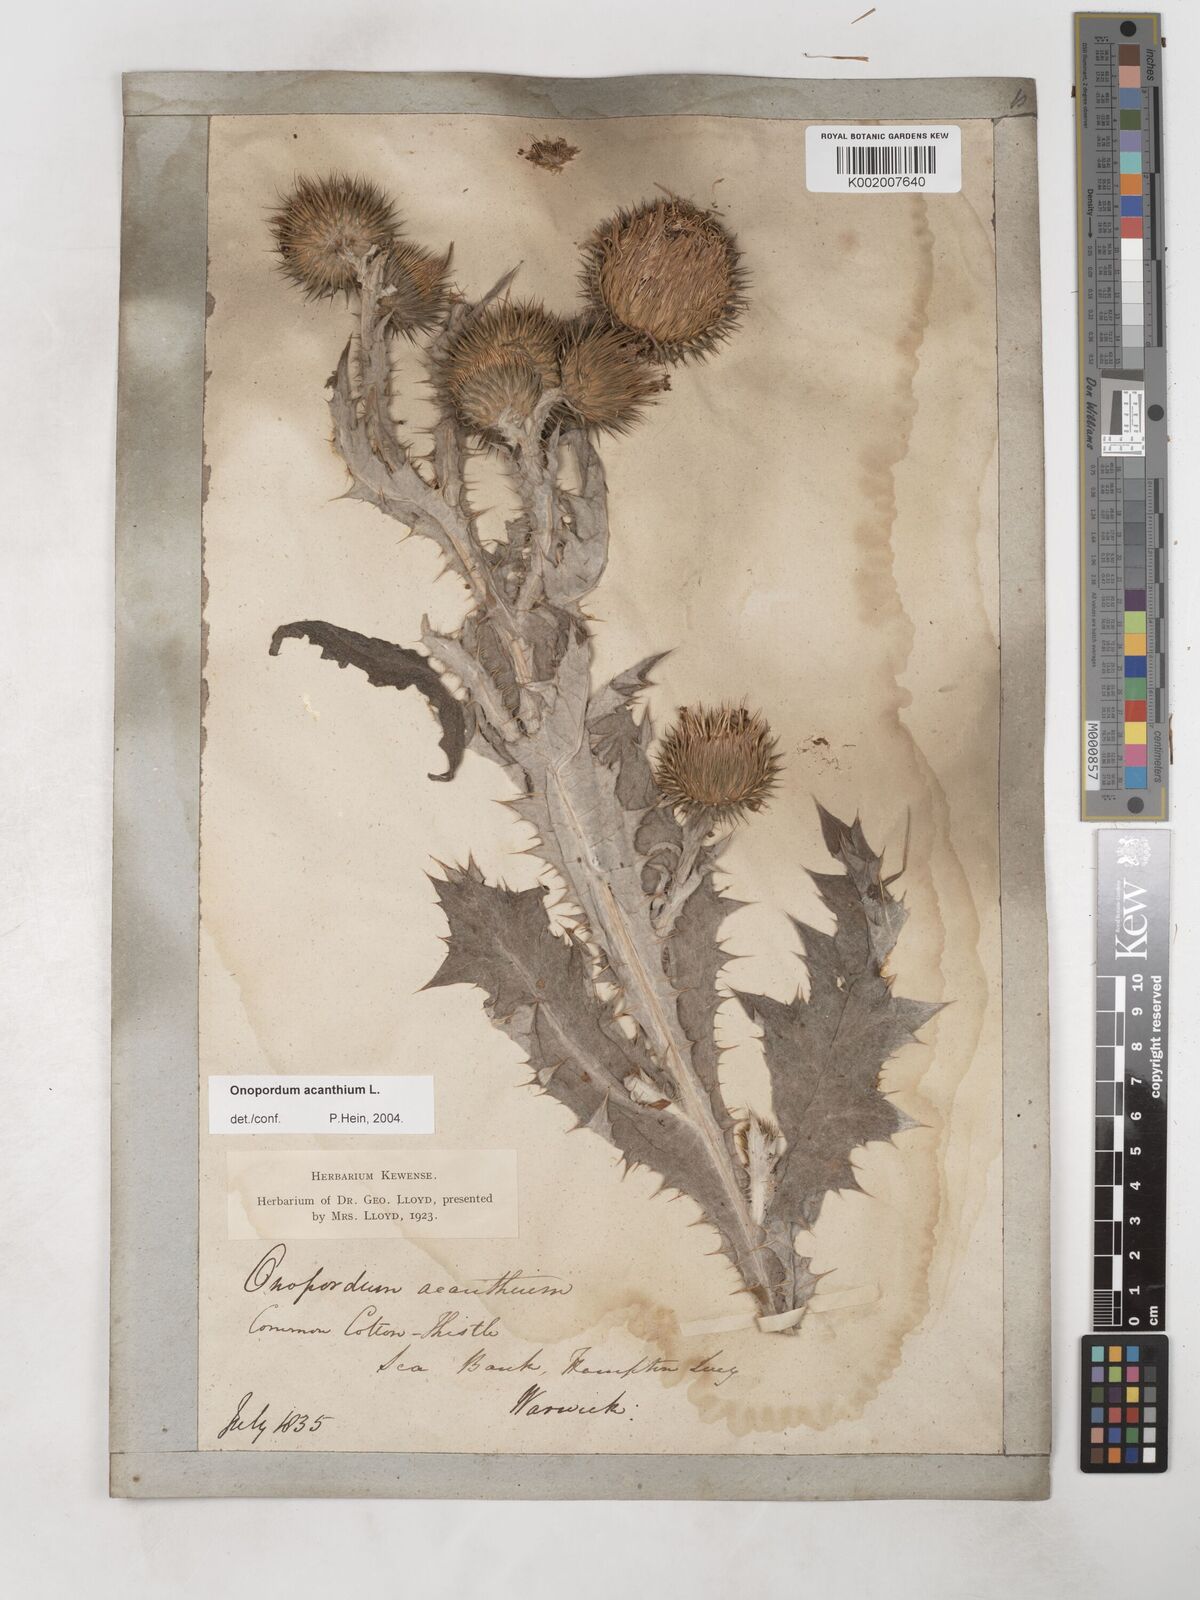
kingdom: Plantae
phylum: Tracheophyta
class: Magnoliopsida
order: Asterales
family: Asteraceae
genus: Onopordum
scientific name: Onopordum acanthium
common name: Scotch thistle
